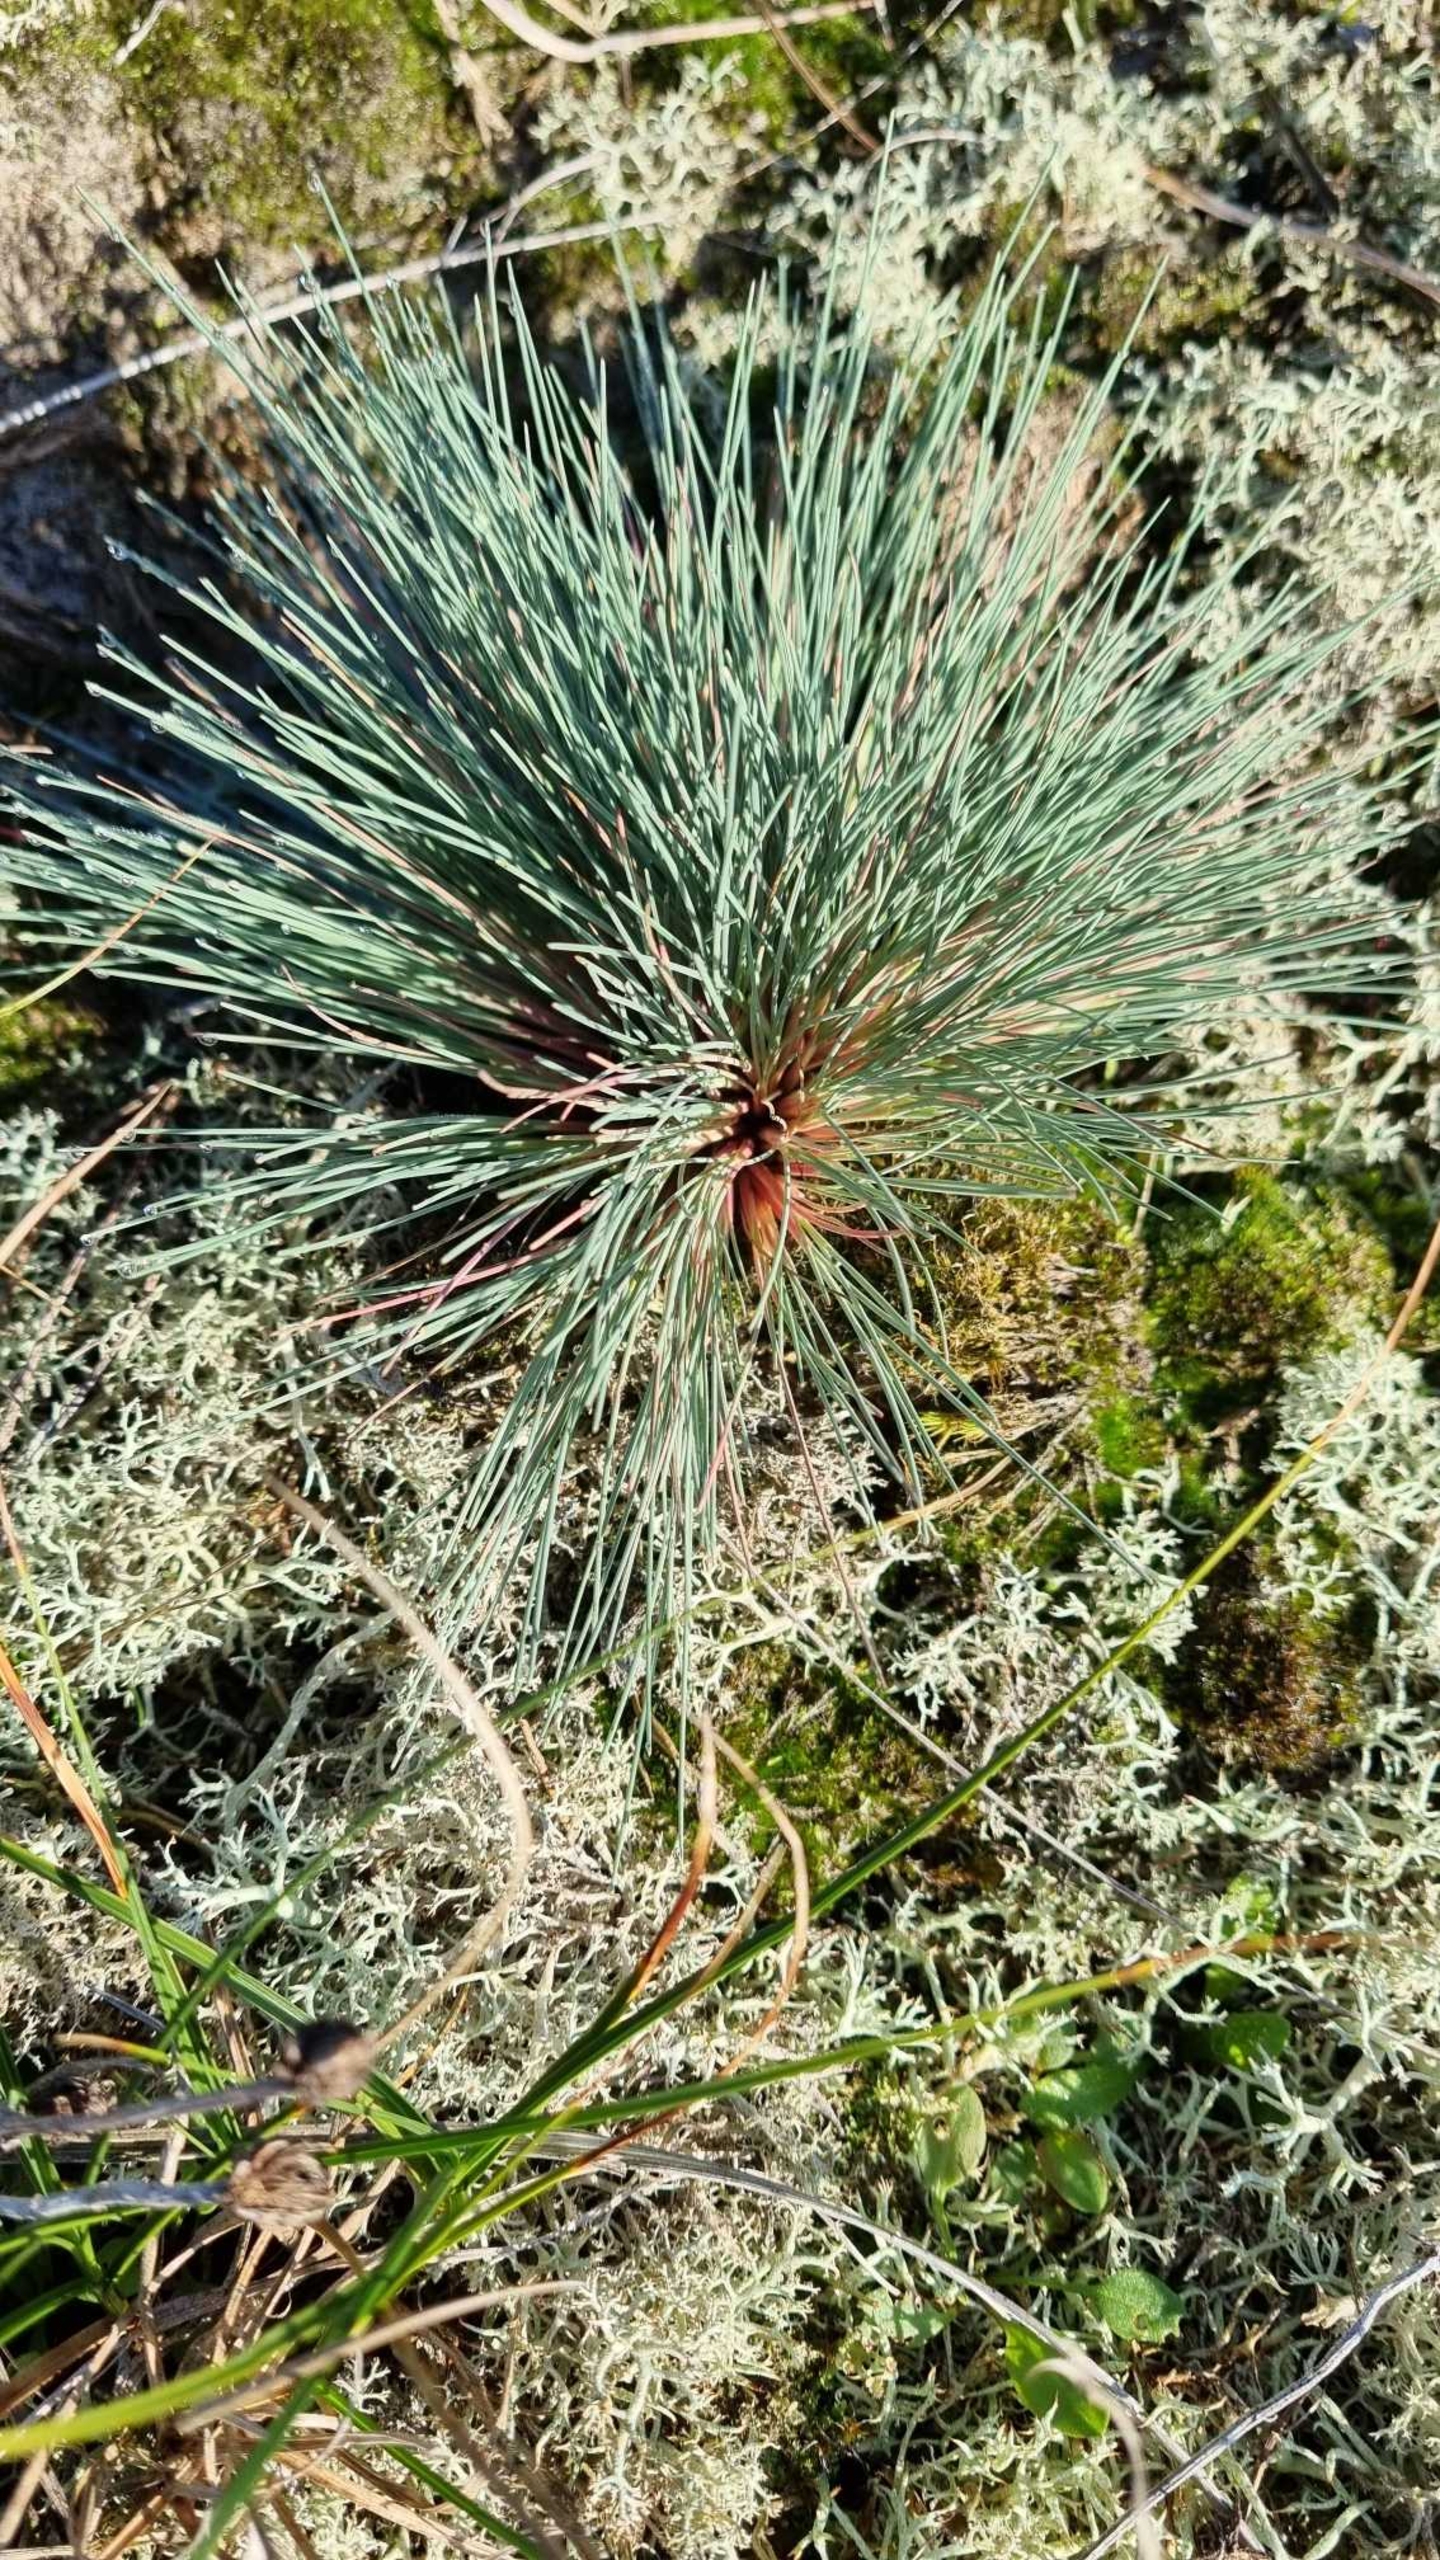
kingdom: Plantae
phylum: Tracheophyta
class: Liliopsida
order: Poales
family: Poaceae
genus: Corynephorus
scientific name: Corynephorus canescens
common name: Sandskæg
